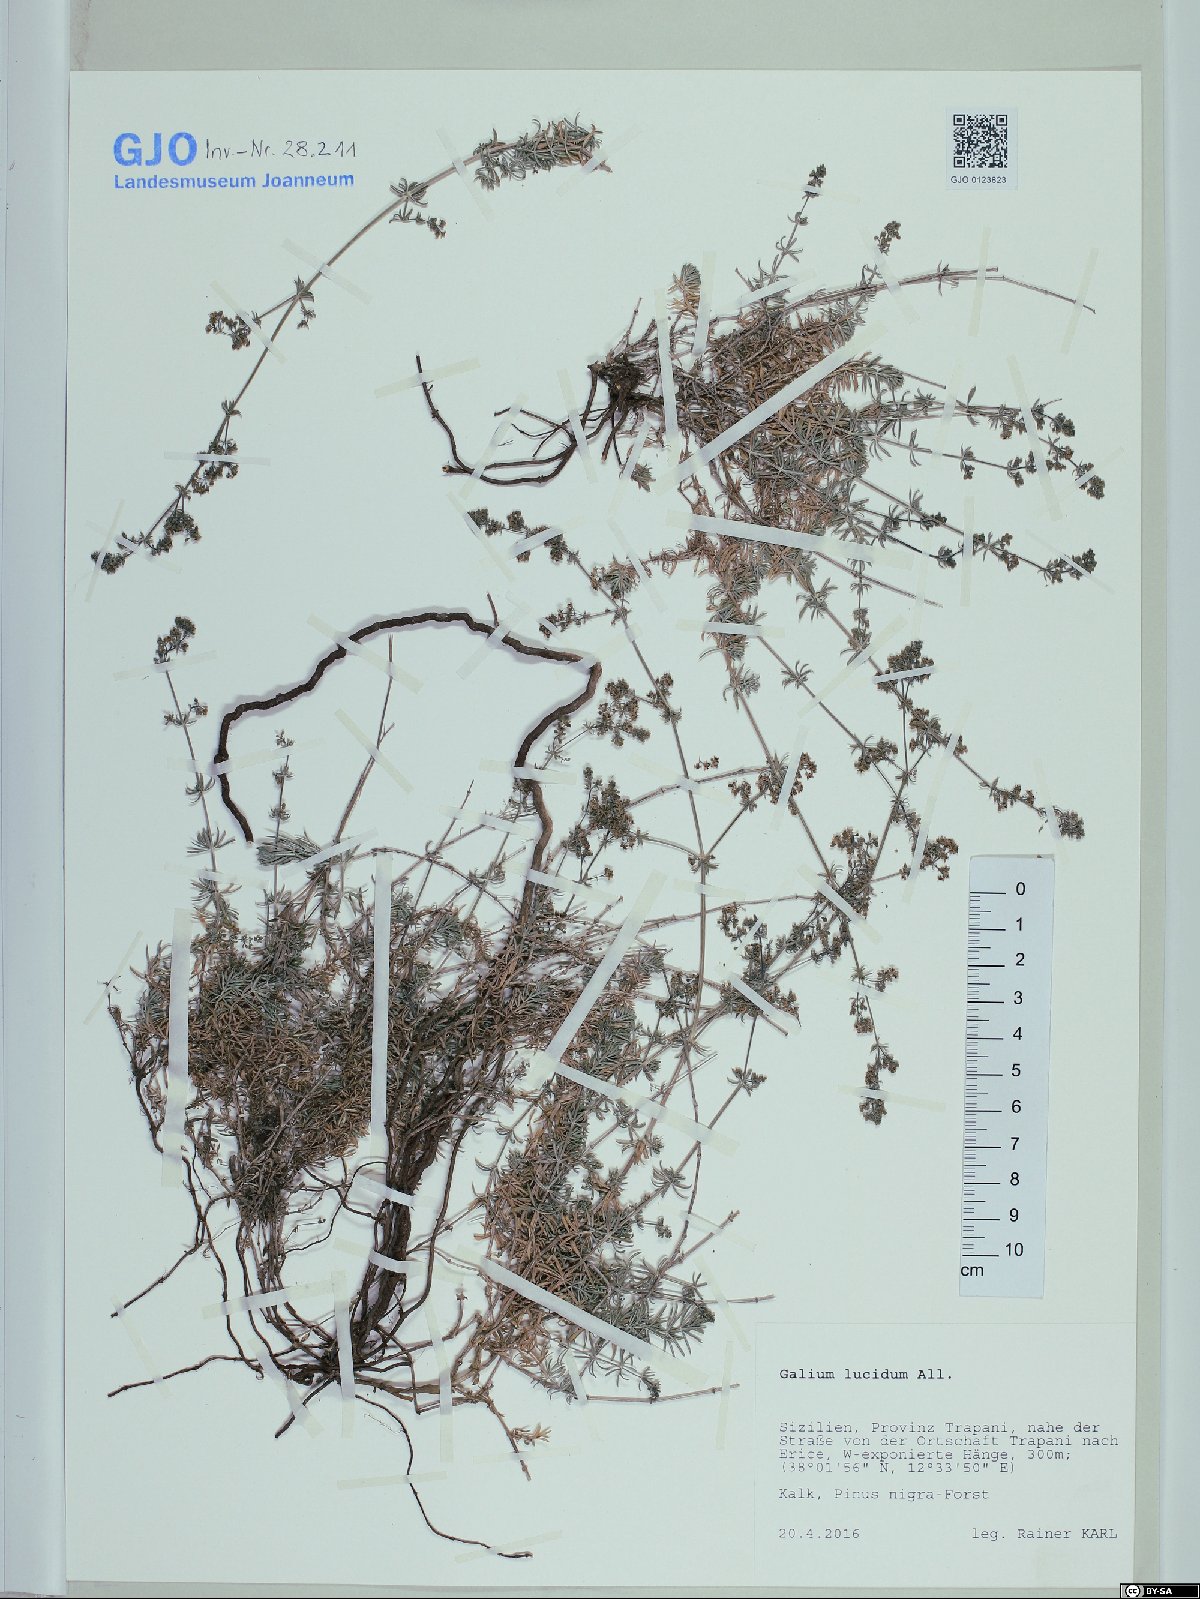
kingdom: Plantae
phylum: Tracheophyta
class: Magnoliopsida
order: Gentianales
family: Rubiaceae
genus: Galium
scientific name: Galium lucidum
